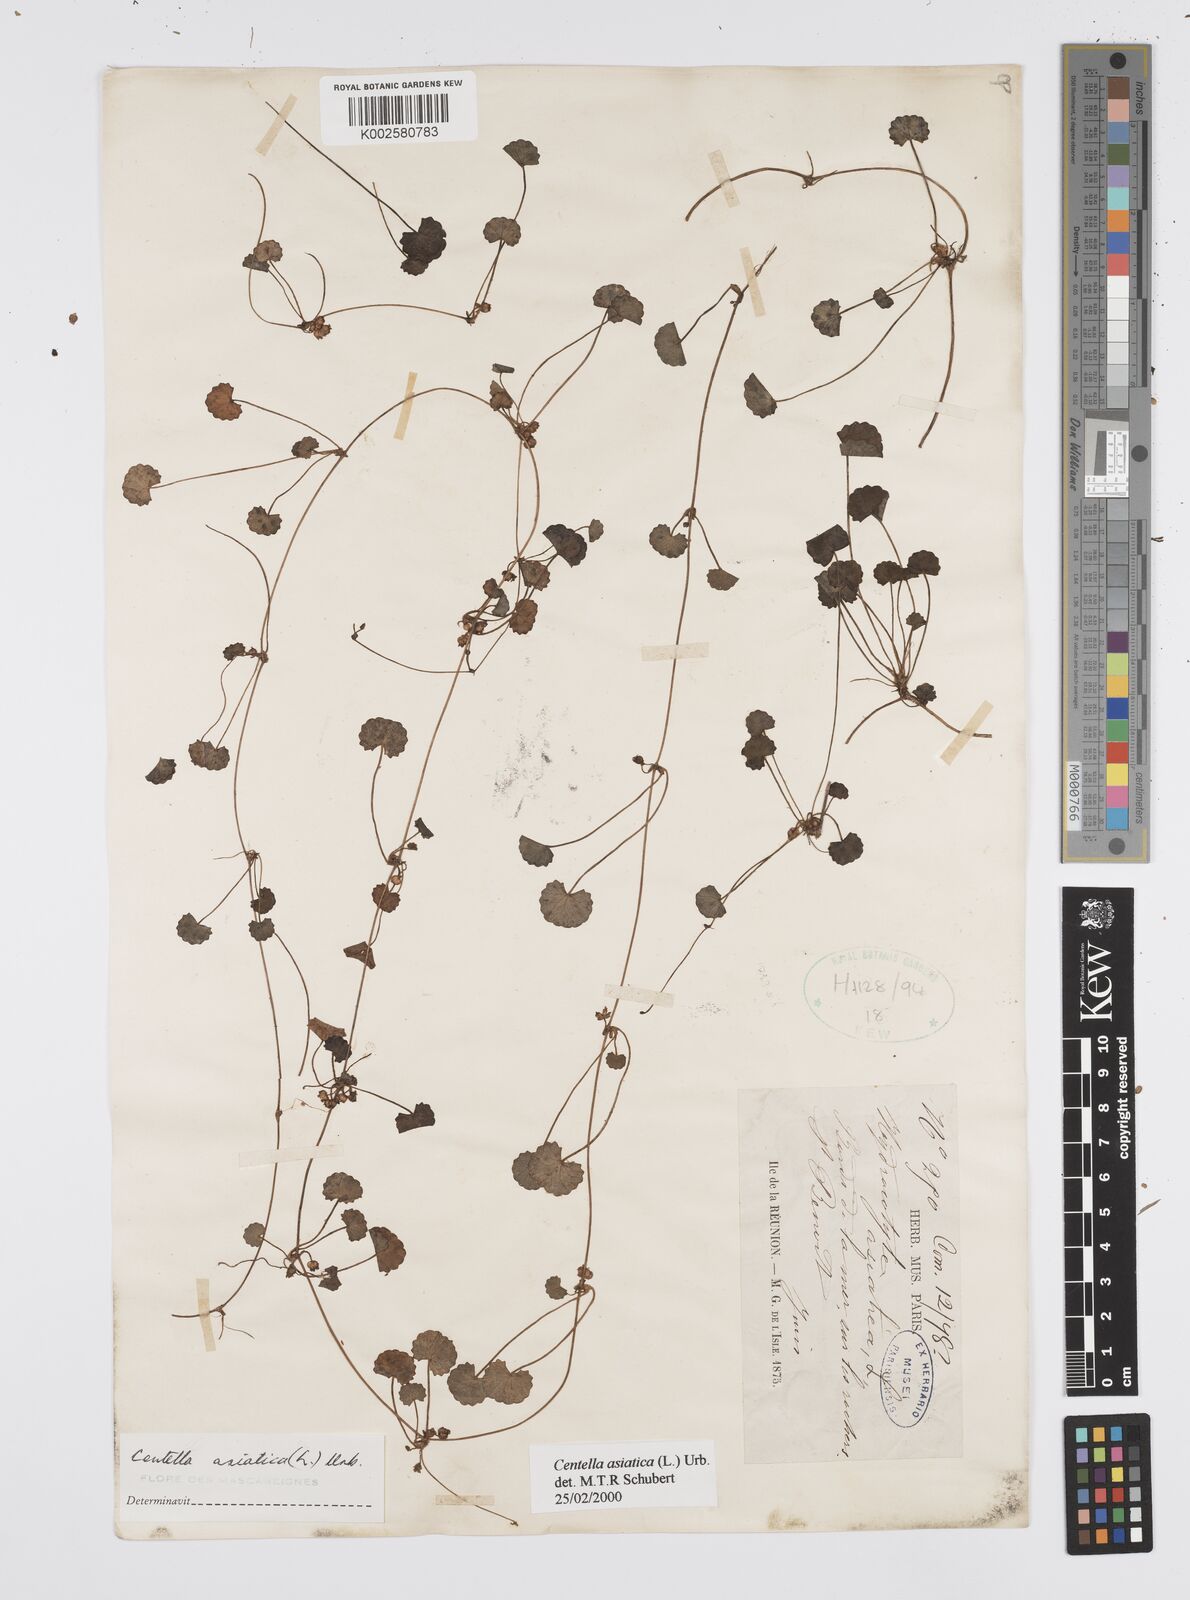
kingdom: Plantae
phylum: Tracheophyta
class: Magnoliopsida
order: Apiales
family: Apiaceae
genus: Centella
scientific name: Centella asiatica
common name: Spadeleaf
